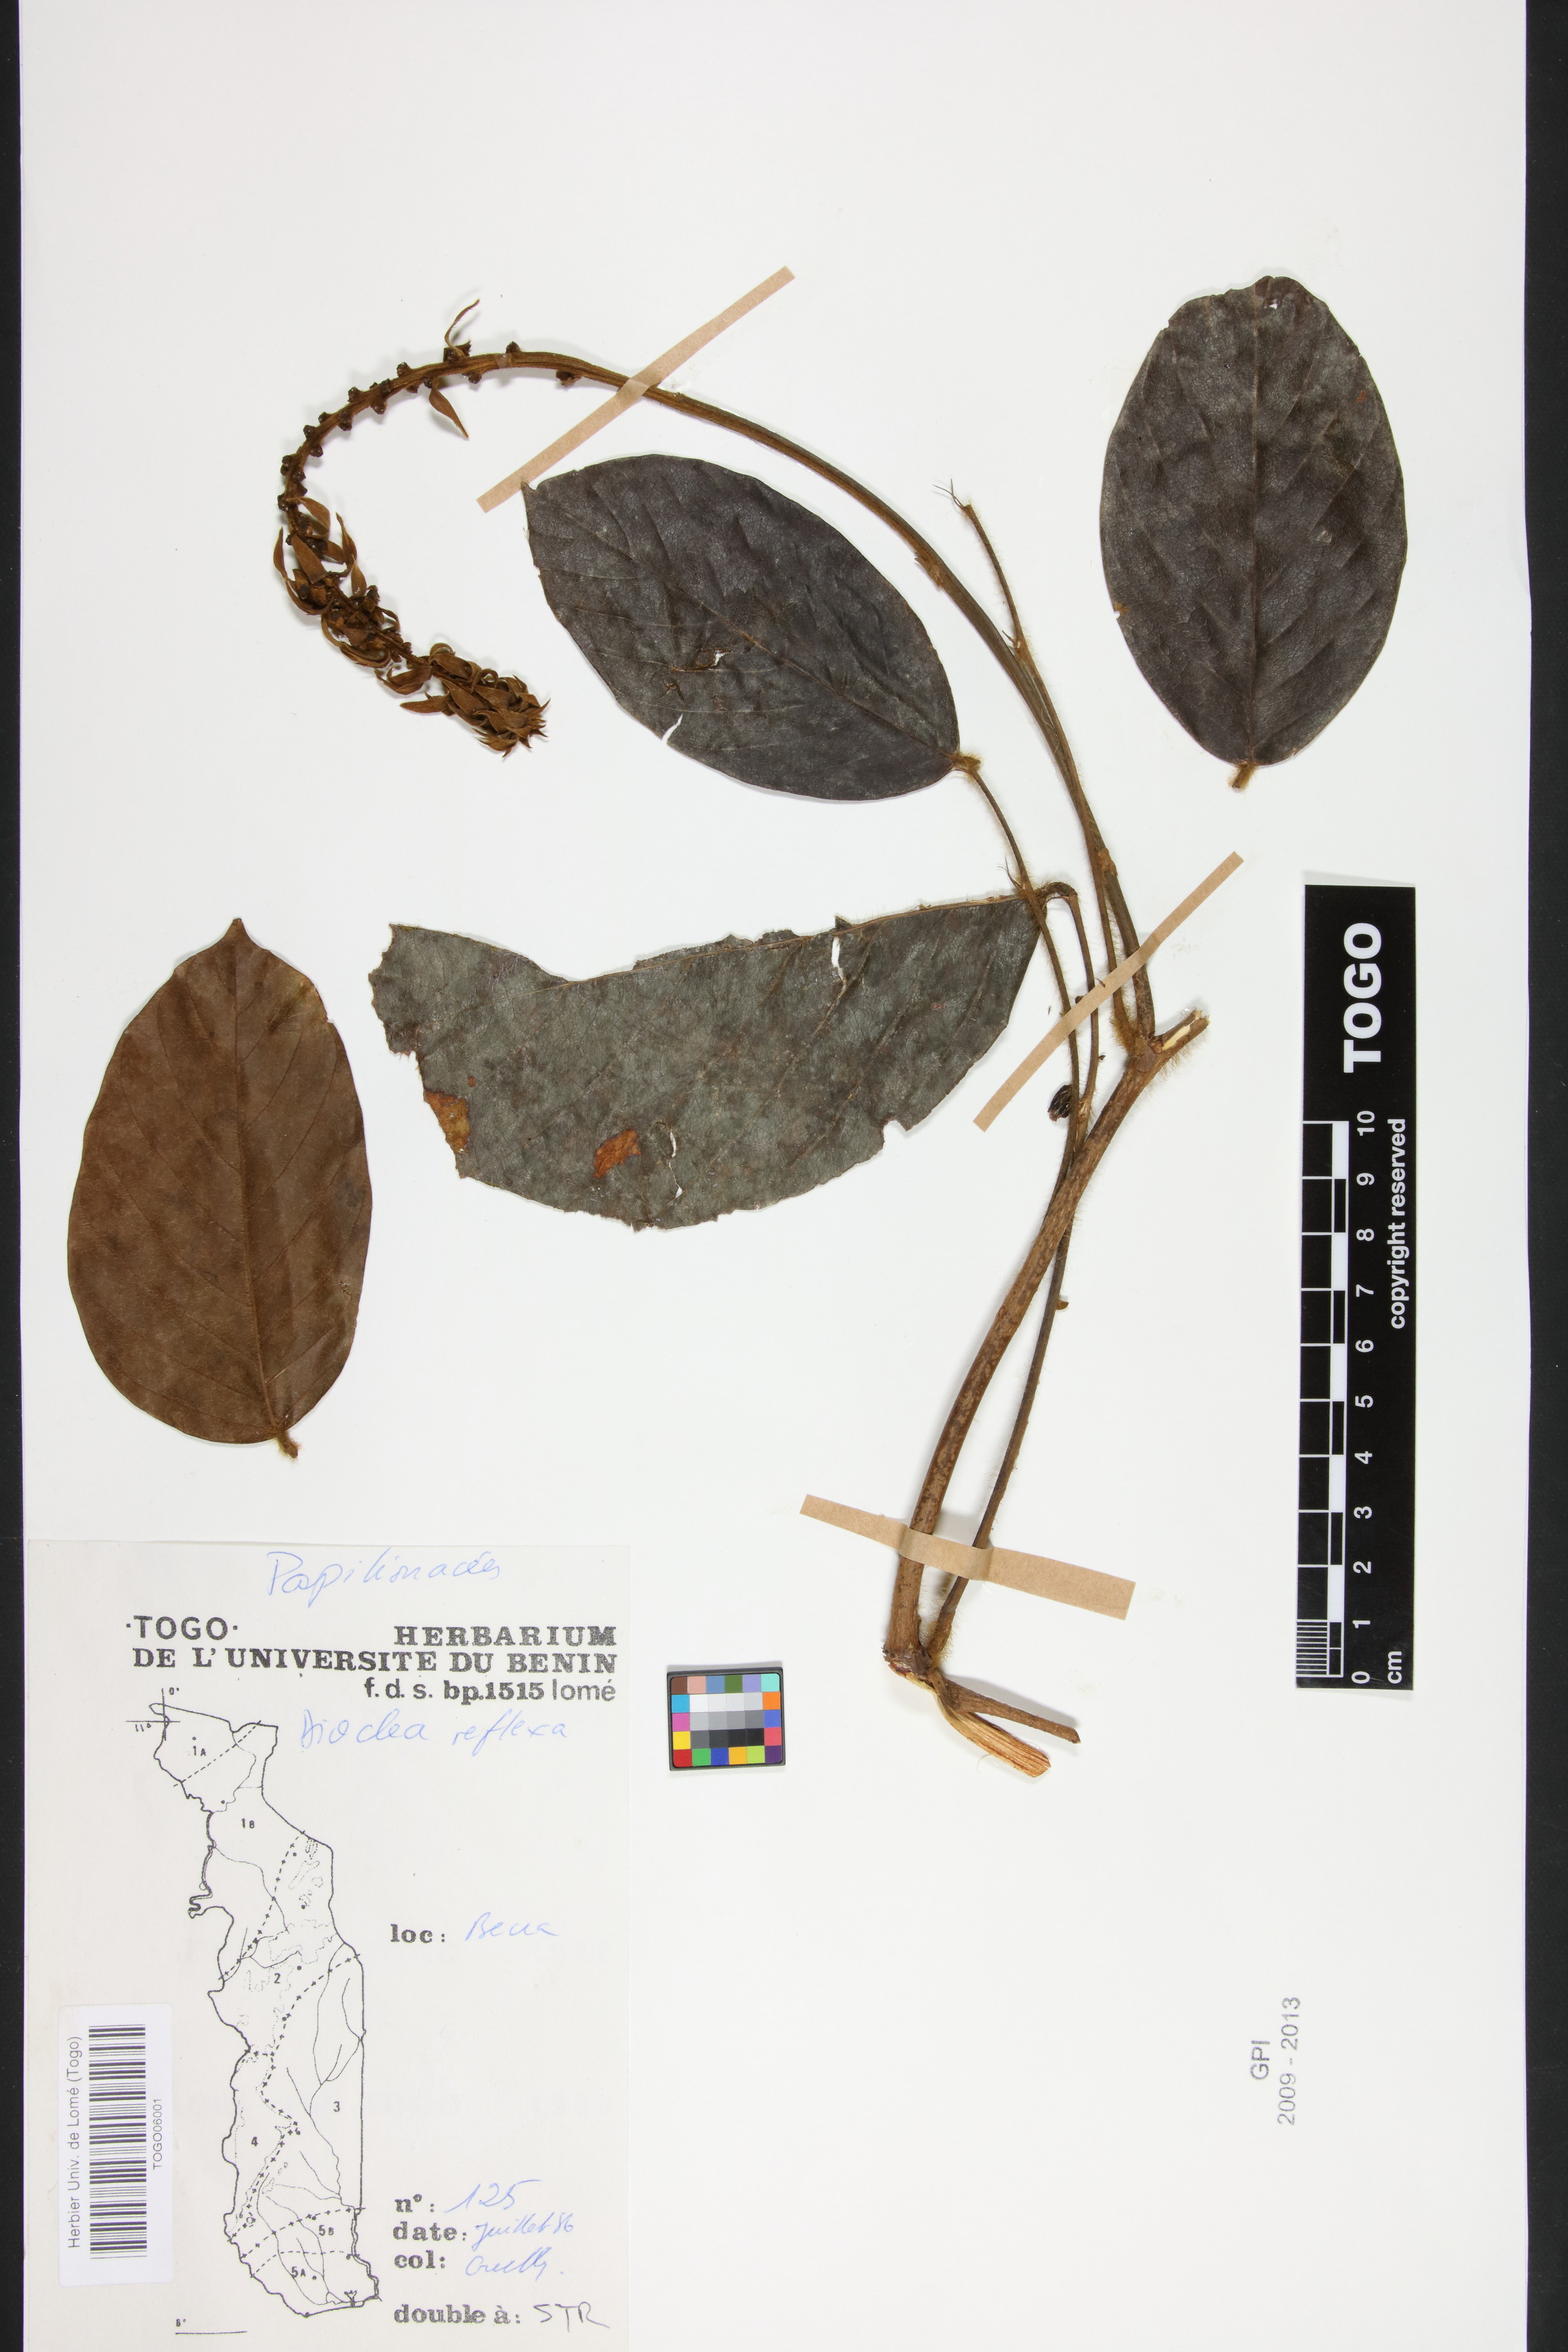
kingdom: Plantae
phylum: Tracheophyta
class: Magnoliopsida
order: Fabales
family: Fabaceae
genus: Macropsychanthus
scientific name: Macropsychanthus comosus
